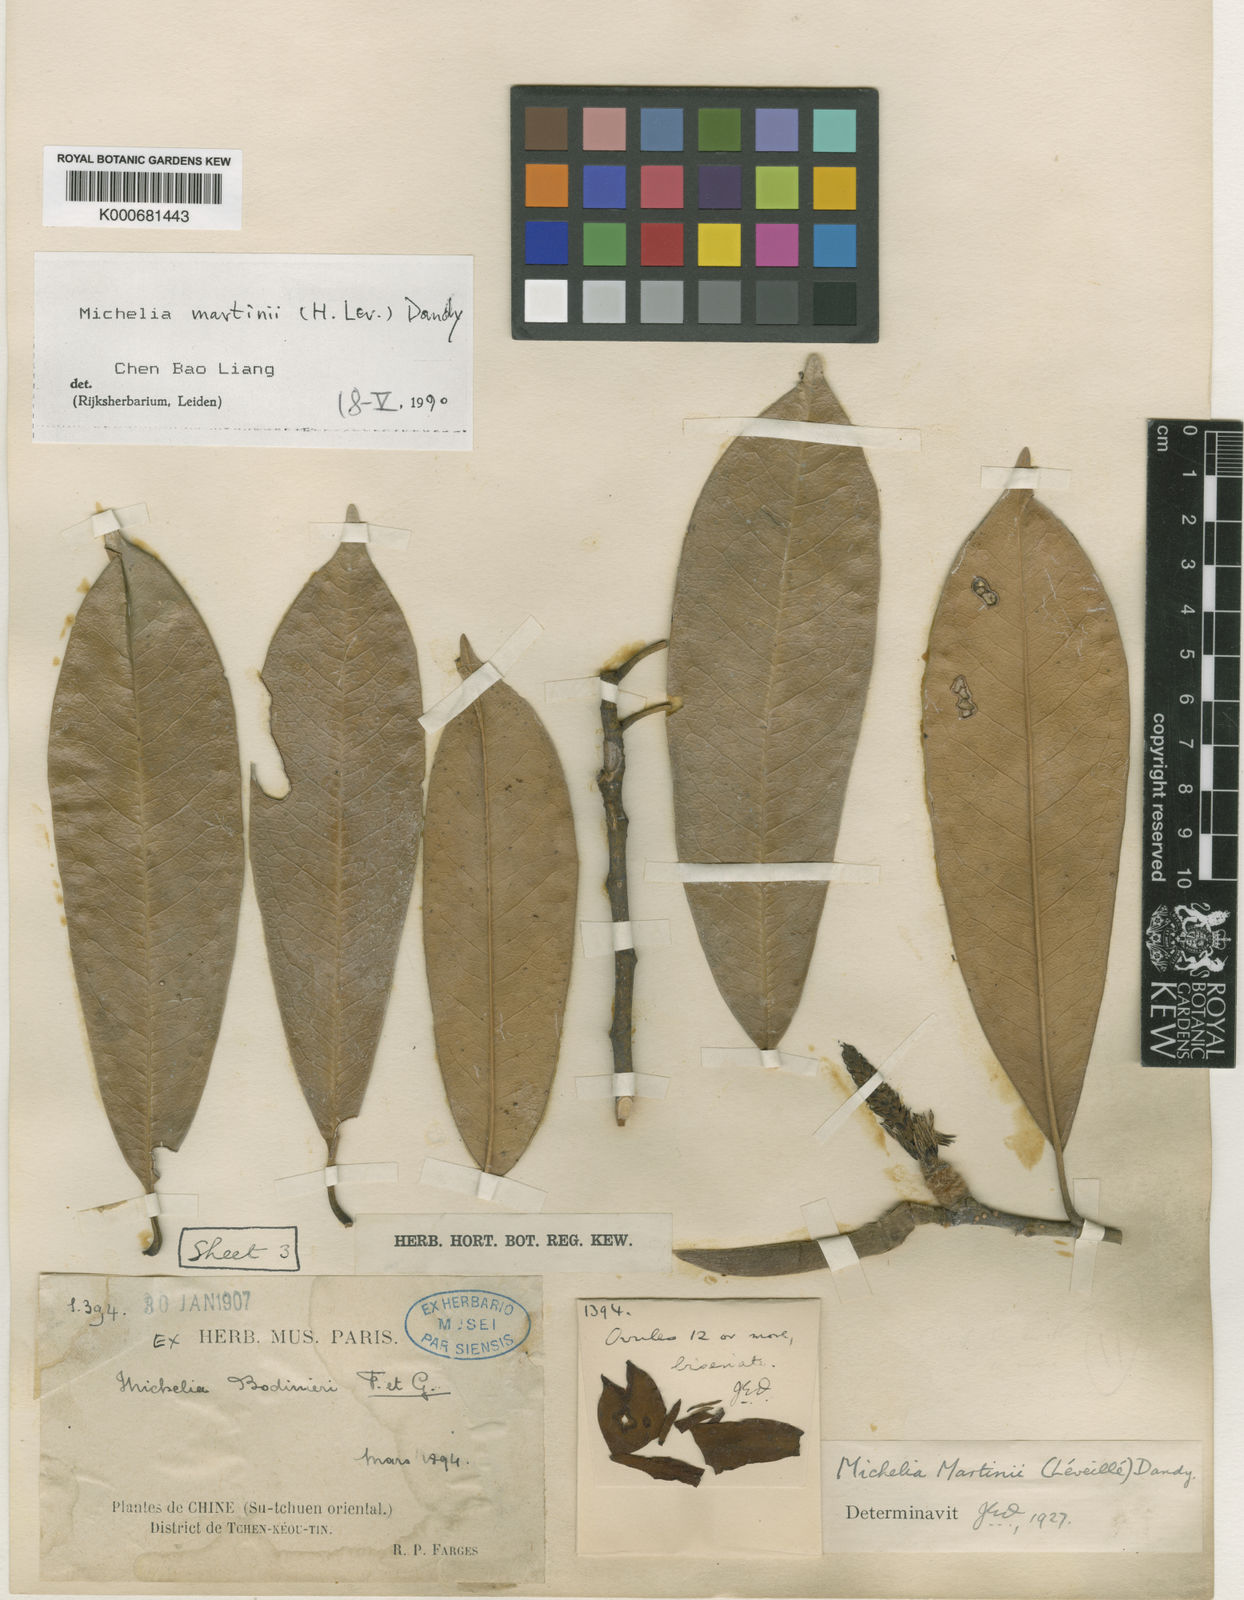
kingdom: Plantae
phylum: Tracheophyta
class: Magnoliopsida
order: Magnoliales
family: Magnoliaceae
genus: Magnolia
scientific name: Magnolia
